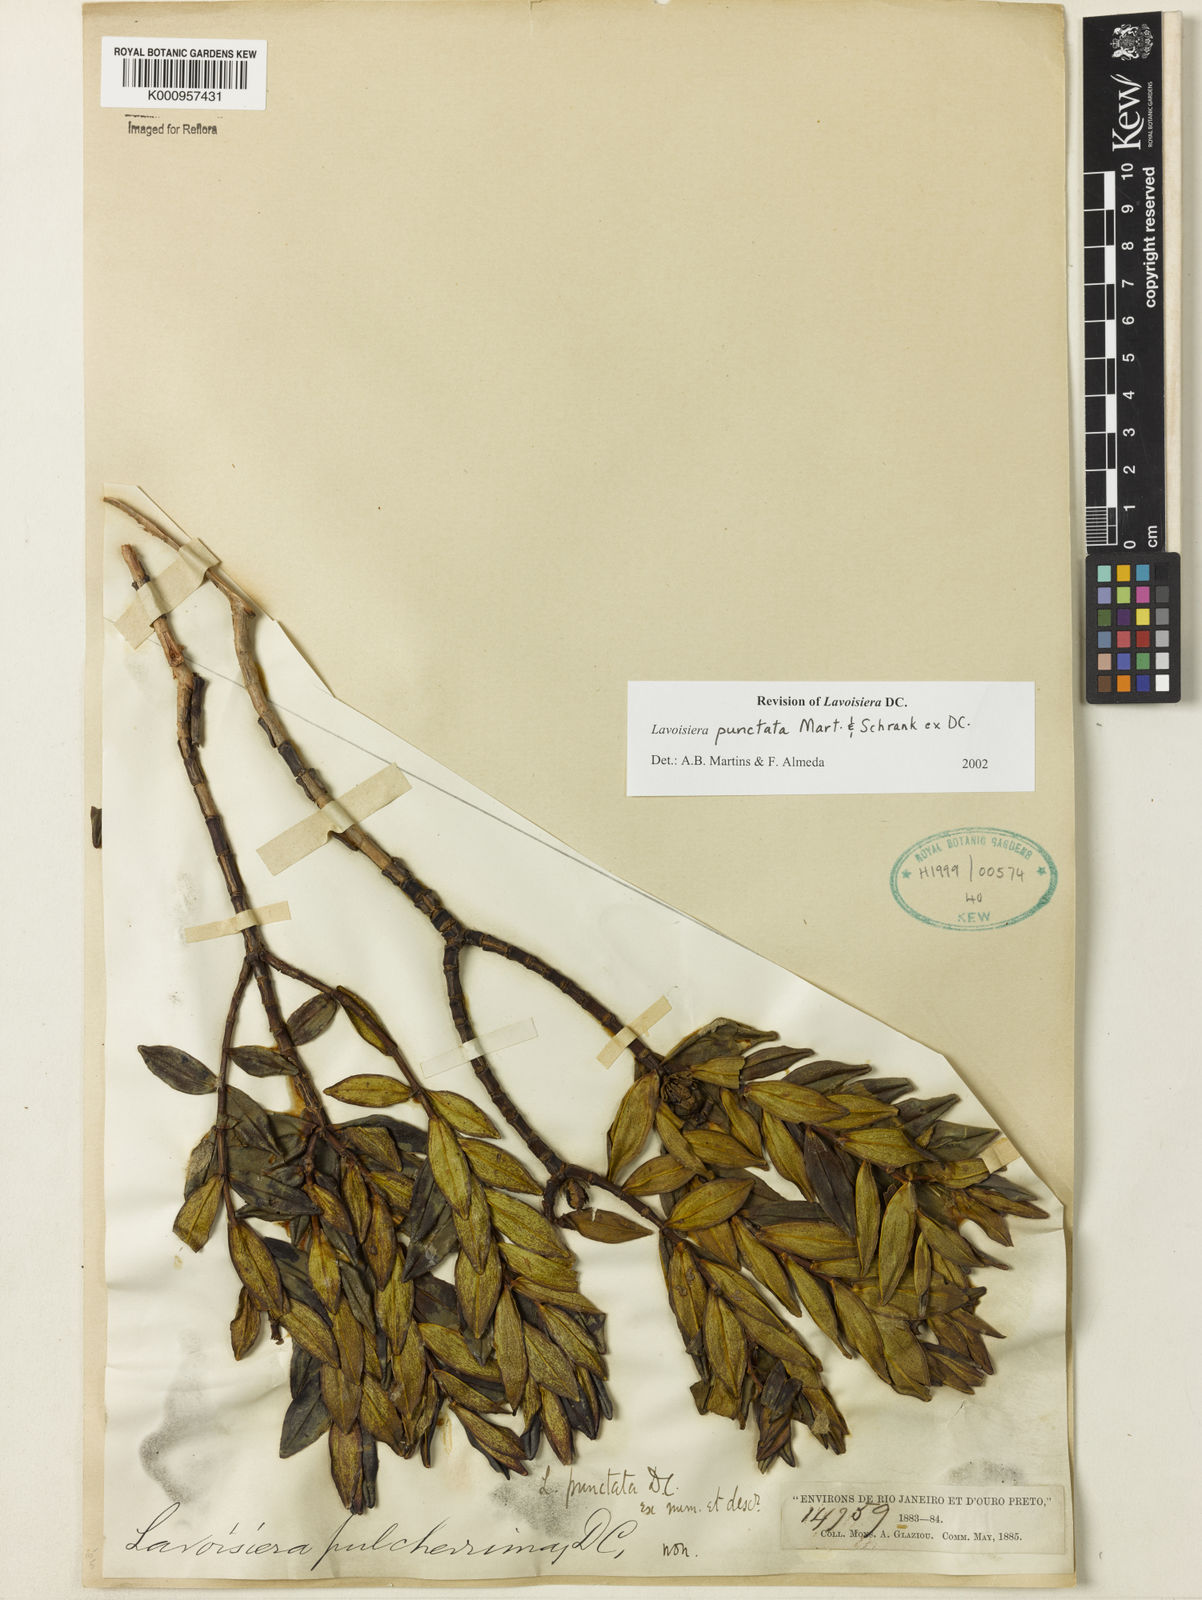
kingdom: Plantae
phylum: Tracheophyta
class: Magnoliopsida
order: Myrtales
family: Melastomataceae
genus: Microlicia
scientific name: Microlicia punctata
